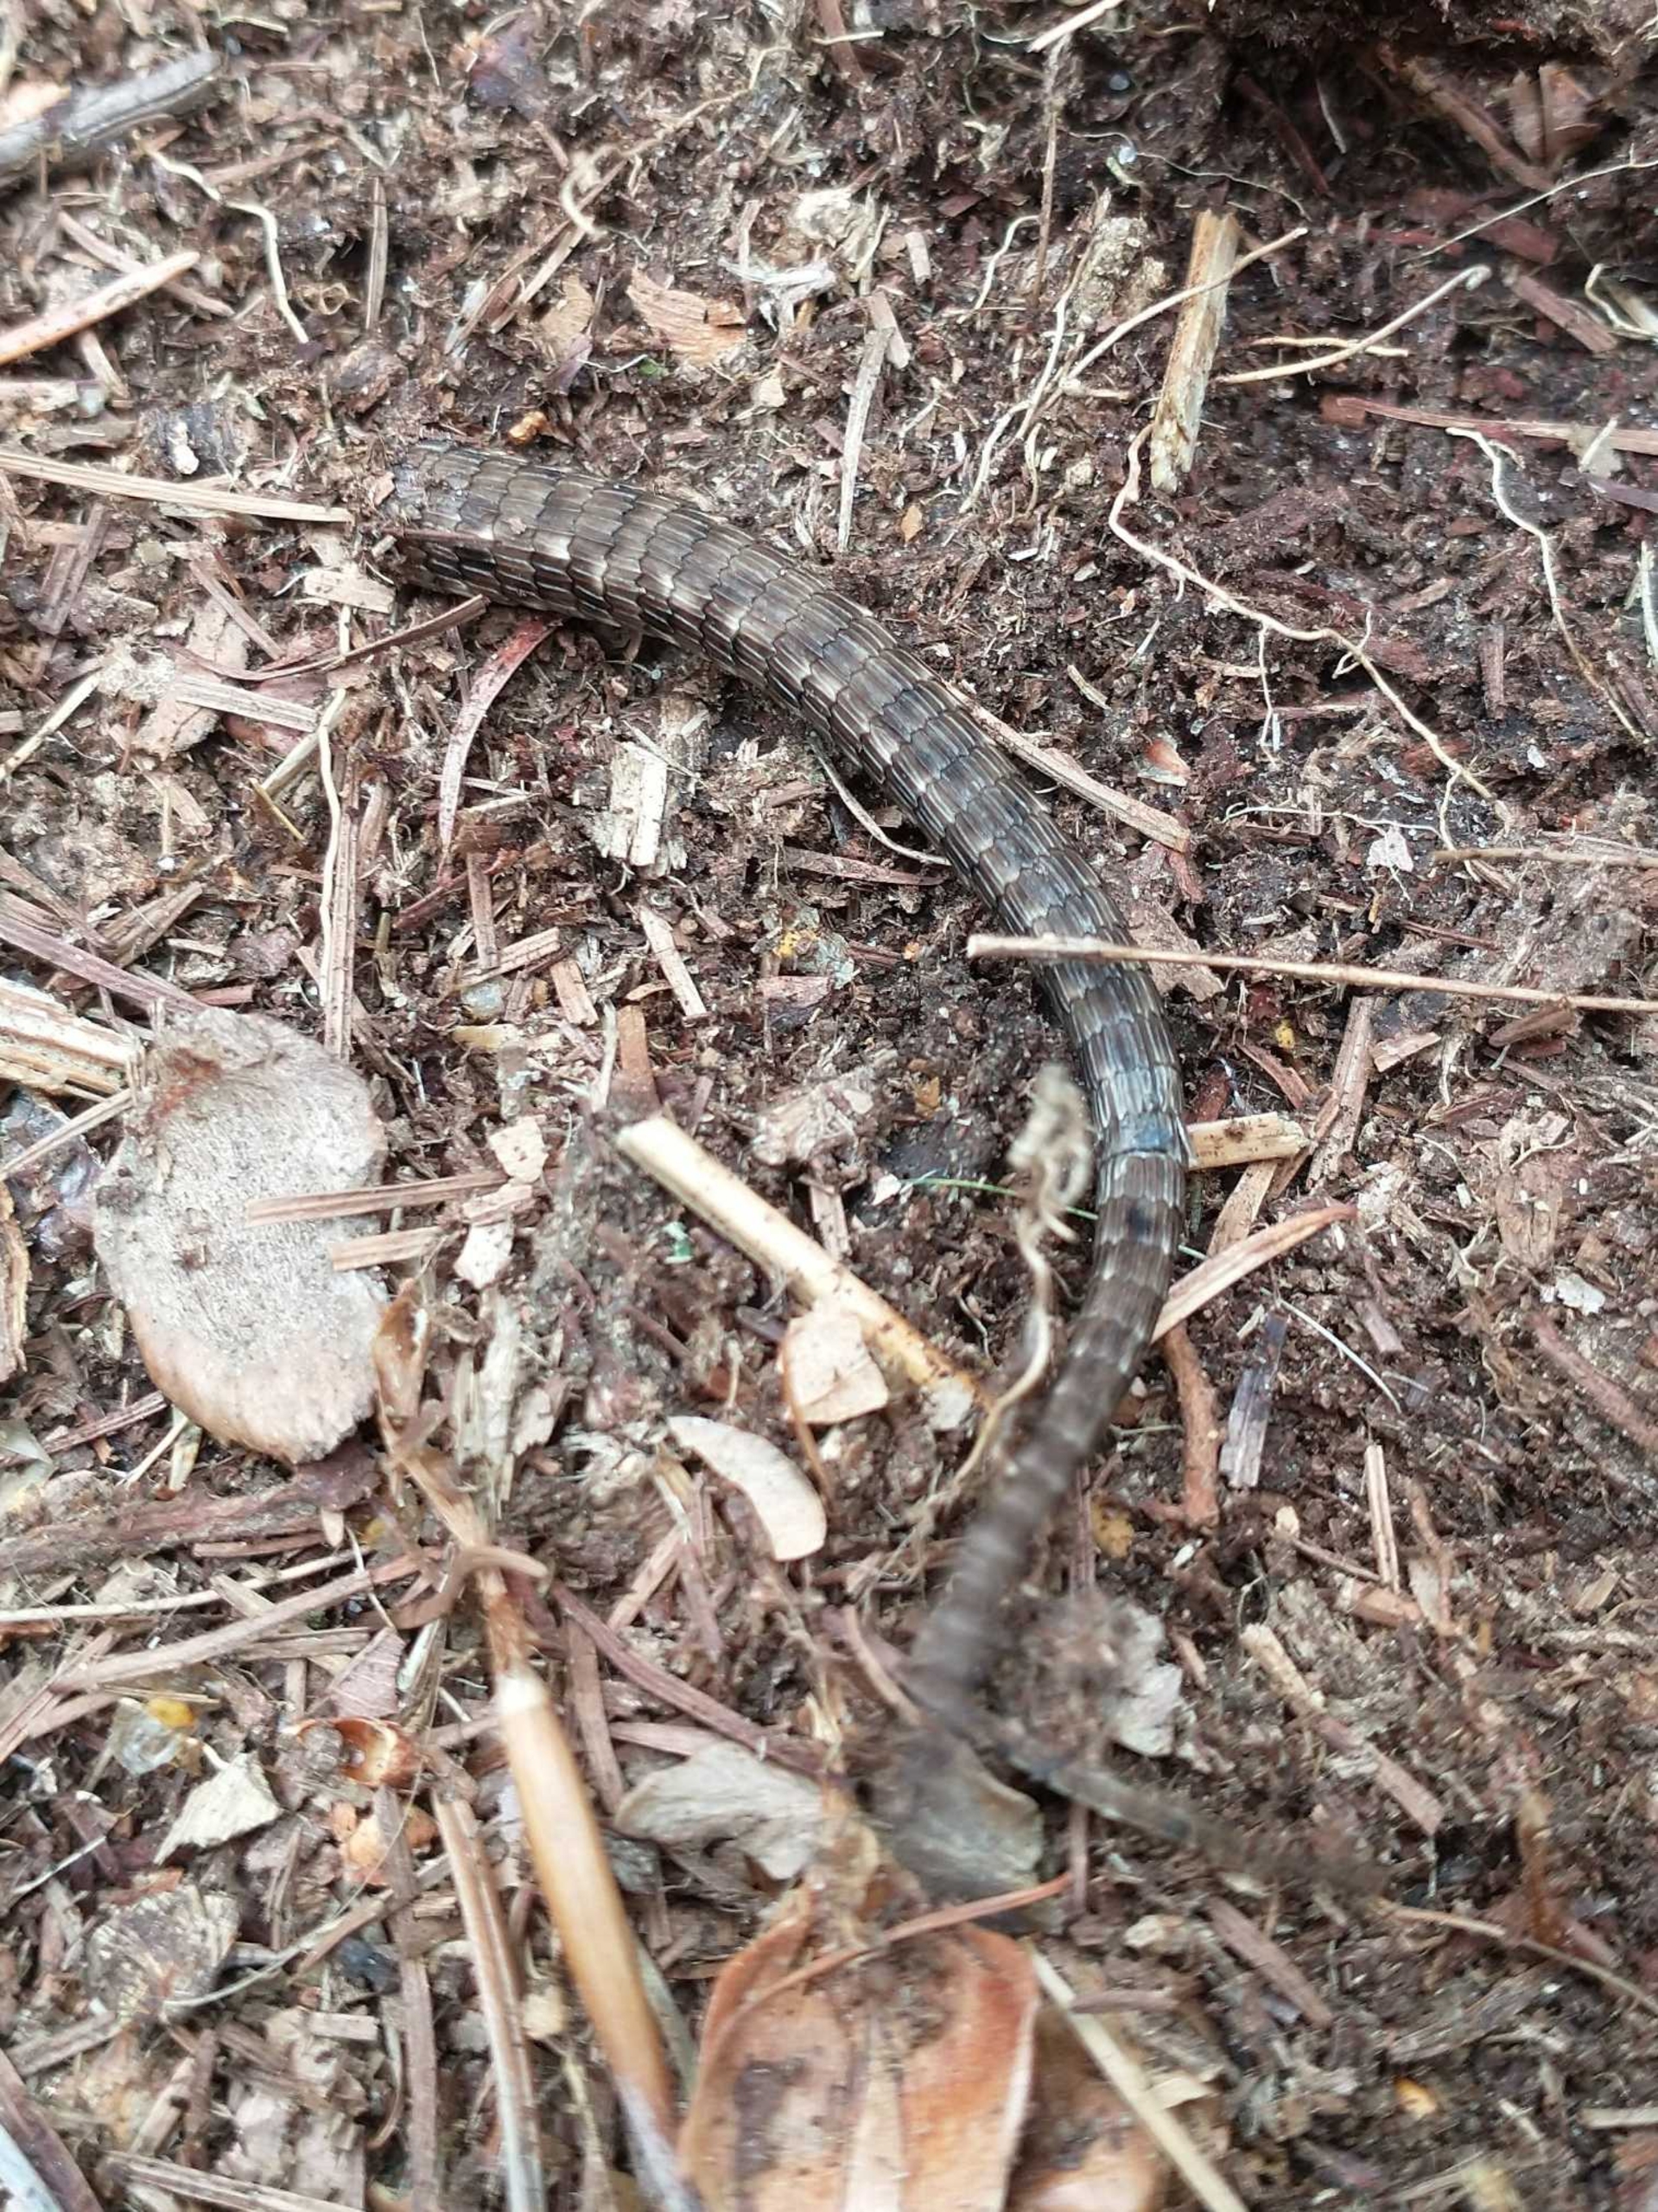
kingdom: Animalia
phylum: Chordata
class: Squamata
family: Lacertidae
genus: Zootoca
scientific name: Zootoca vivipara
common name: Skovfirben
